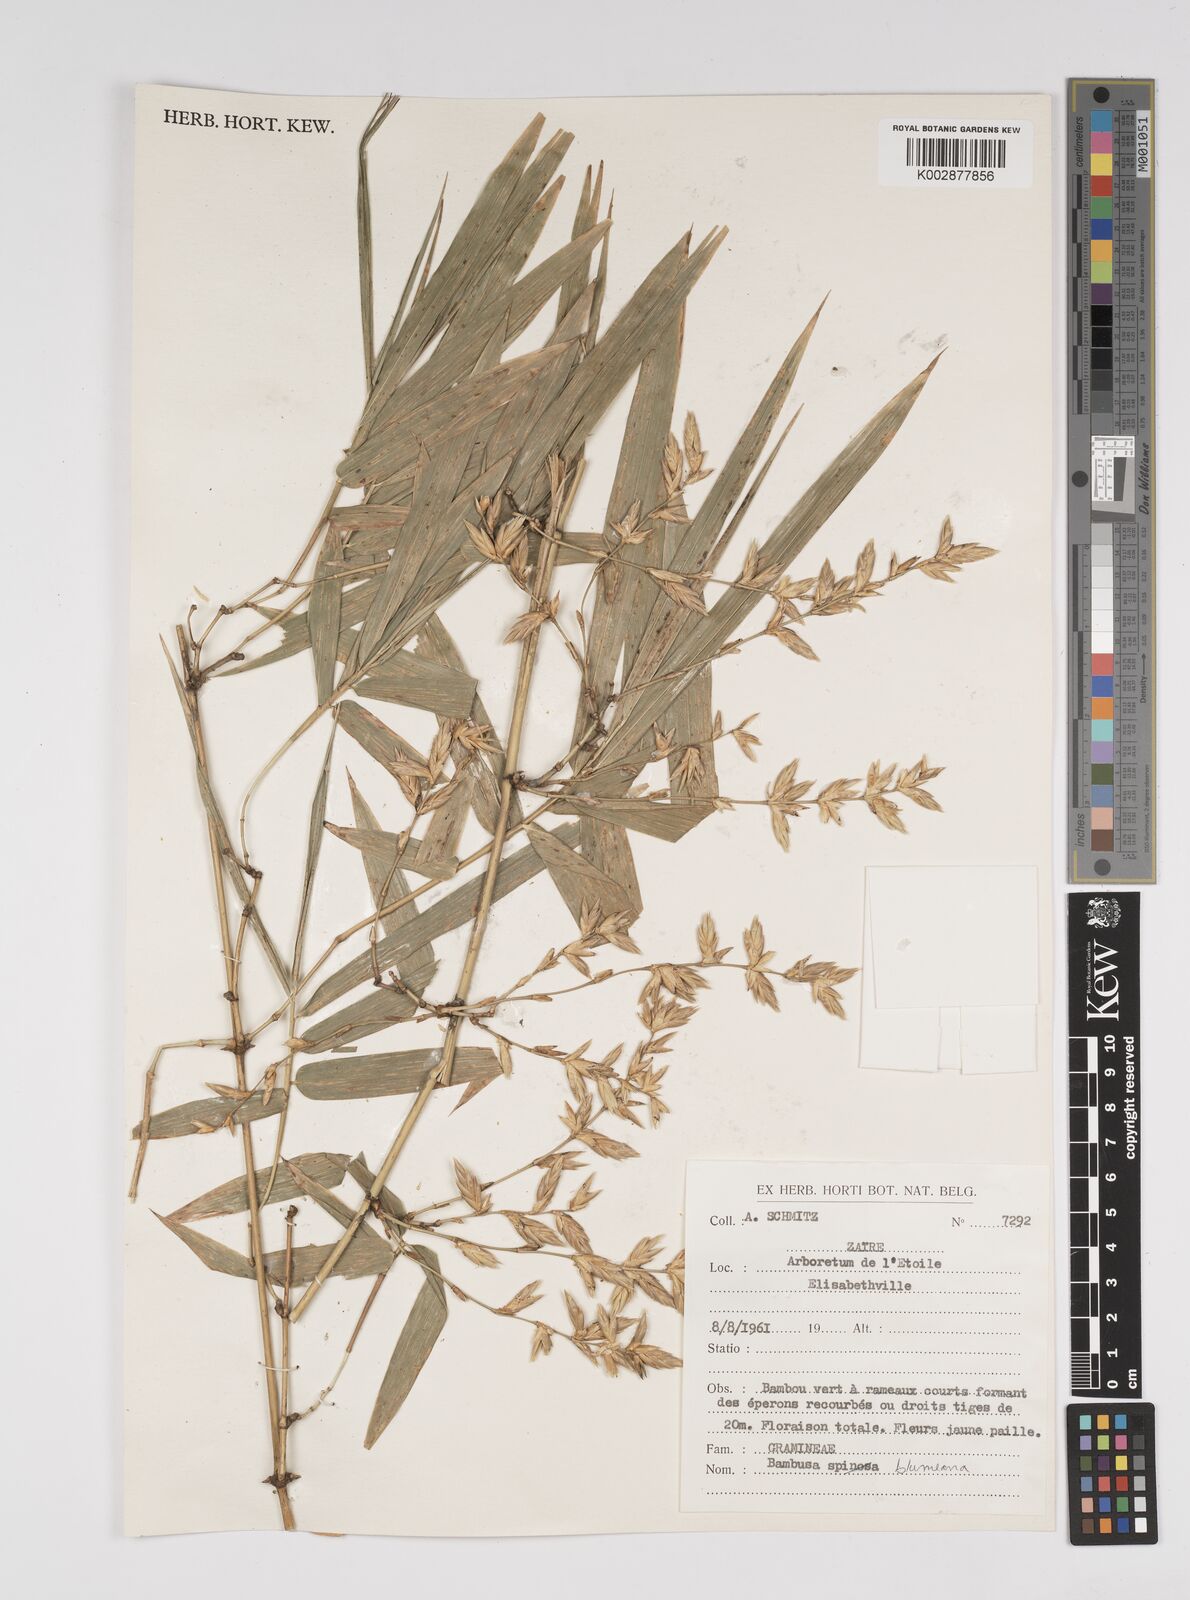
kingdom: Plantae
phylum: Tracheophyta
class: Liliopsida
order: Poales
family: Poaceae
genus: Bambusa
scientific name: Bambusa
